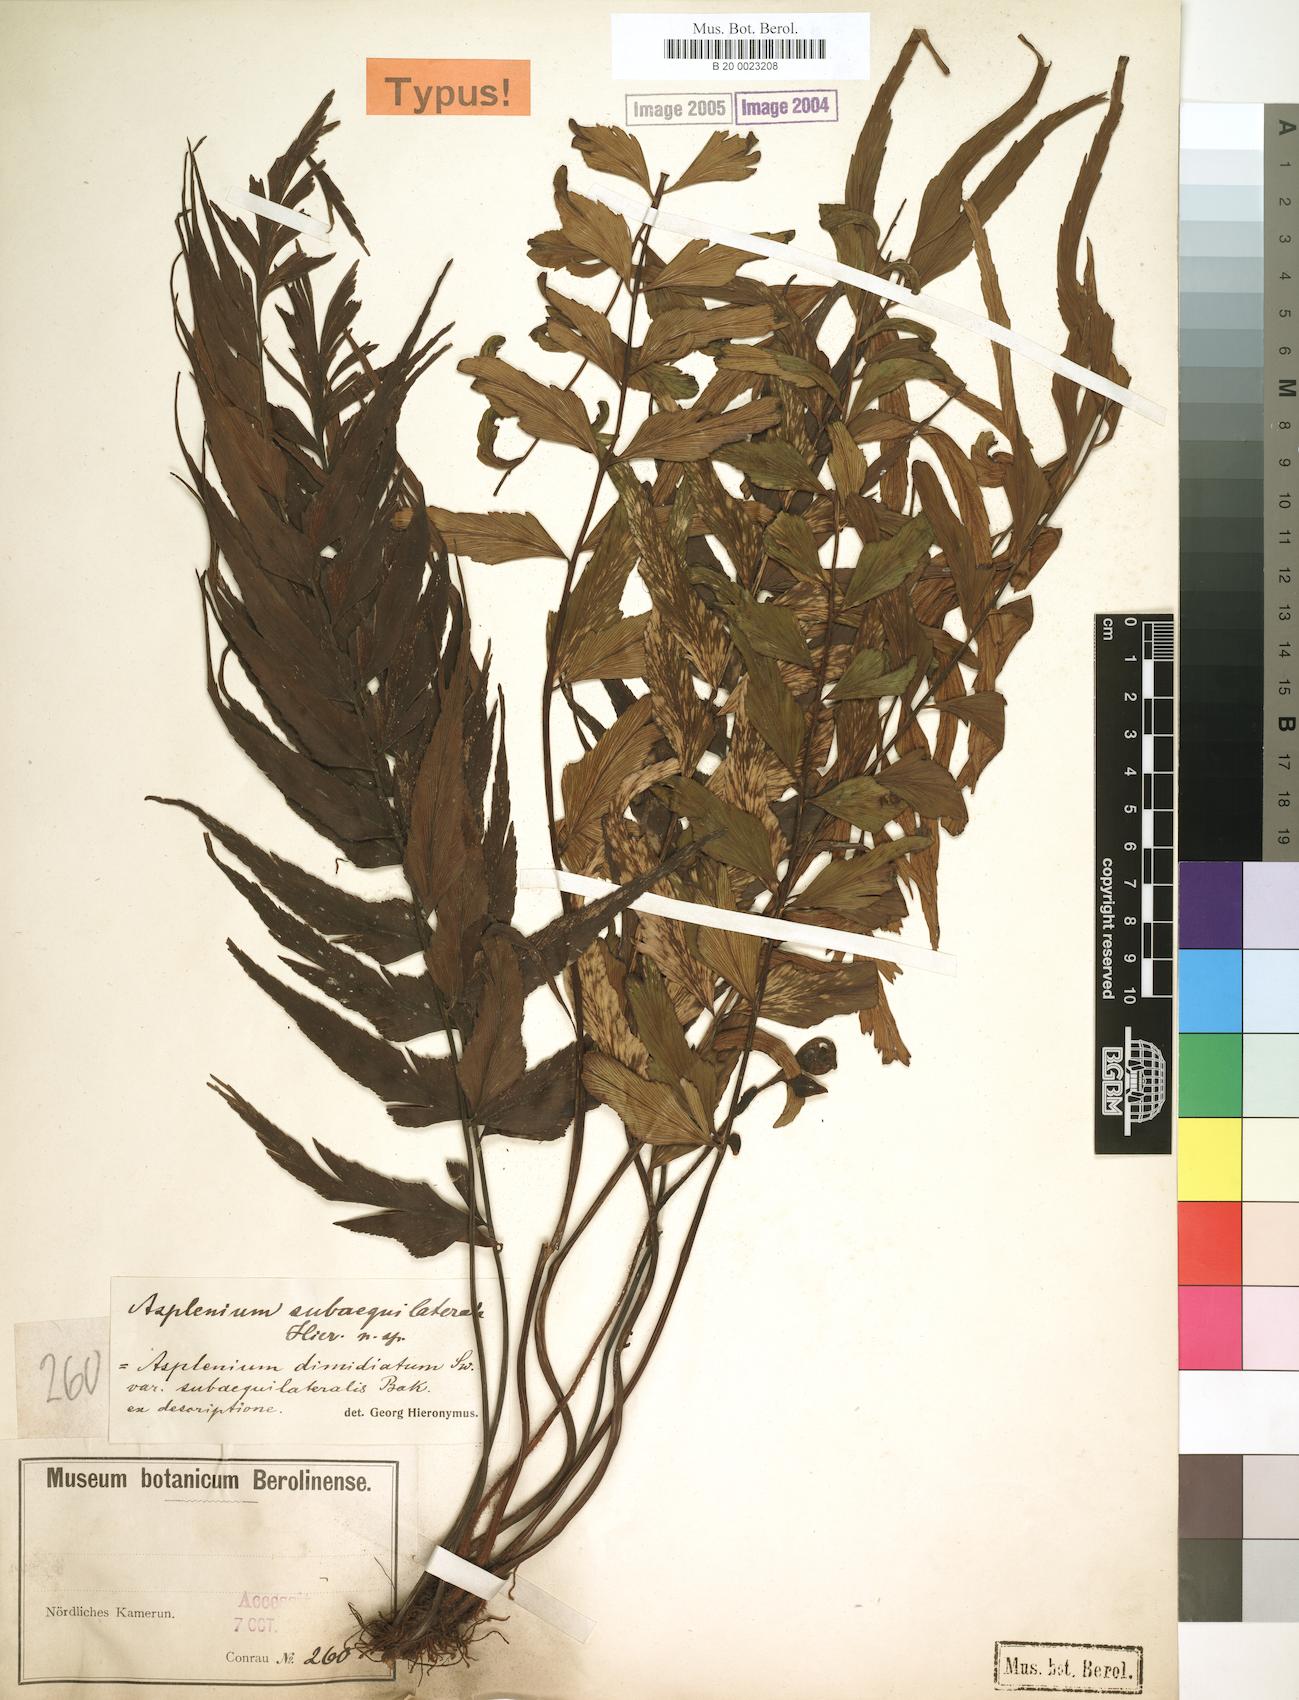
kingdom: Plantae
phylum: Tracheophyta
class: Polypodiopsida
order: Polypodiales
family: Aspleniaceae
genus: Asplenium
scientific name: Asplenium subaequilaterale
